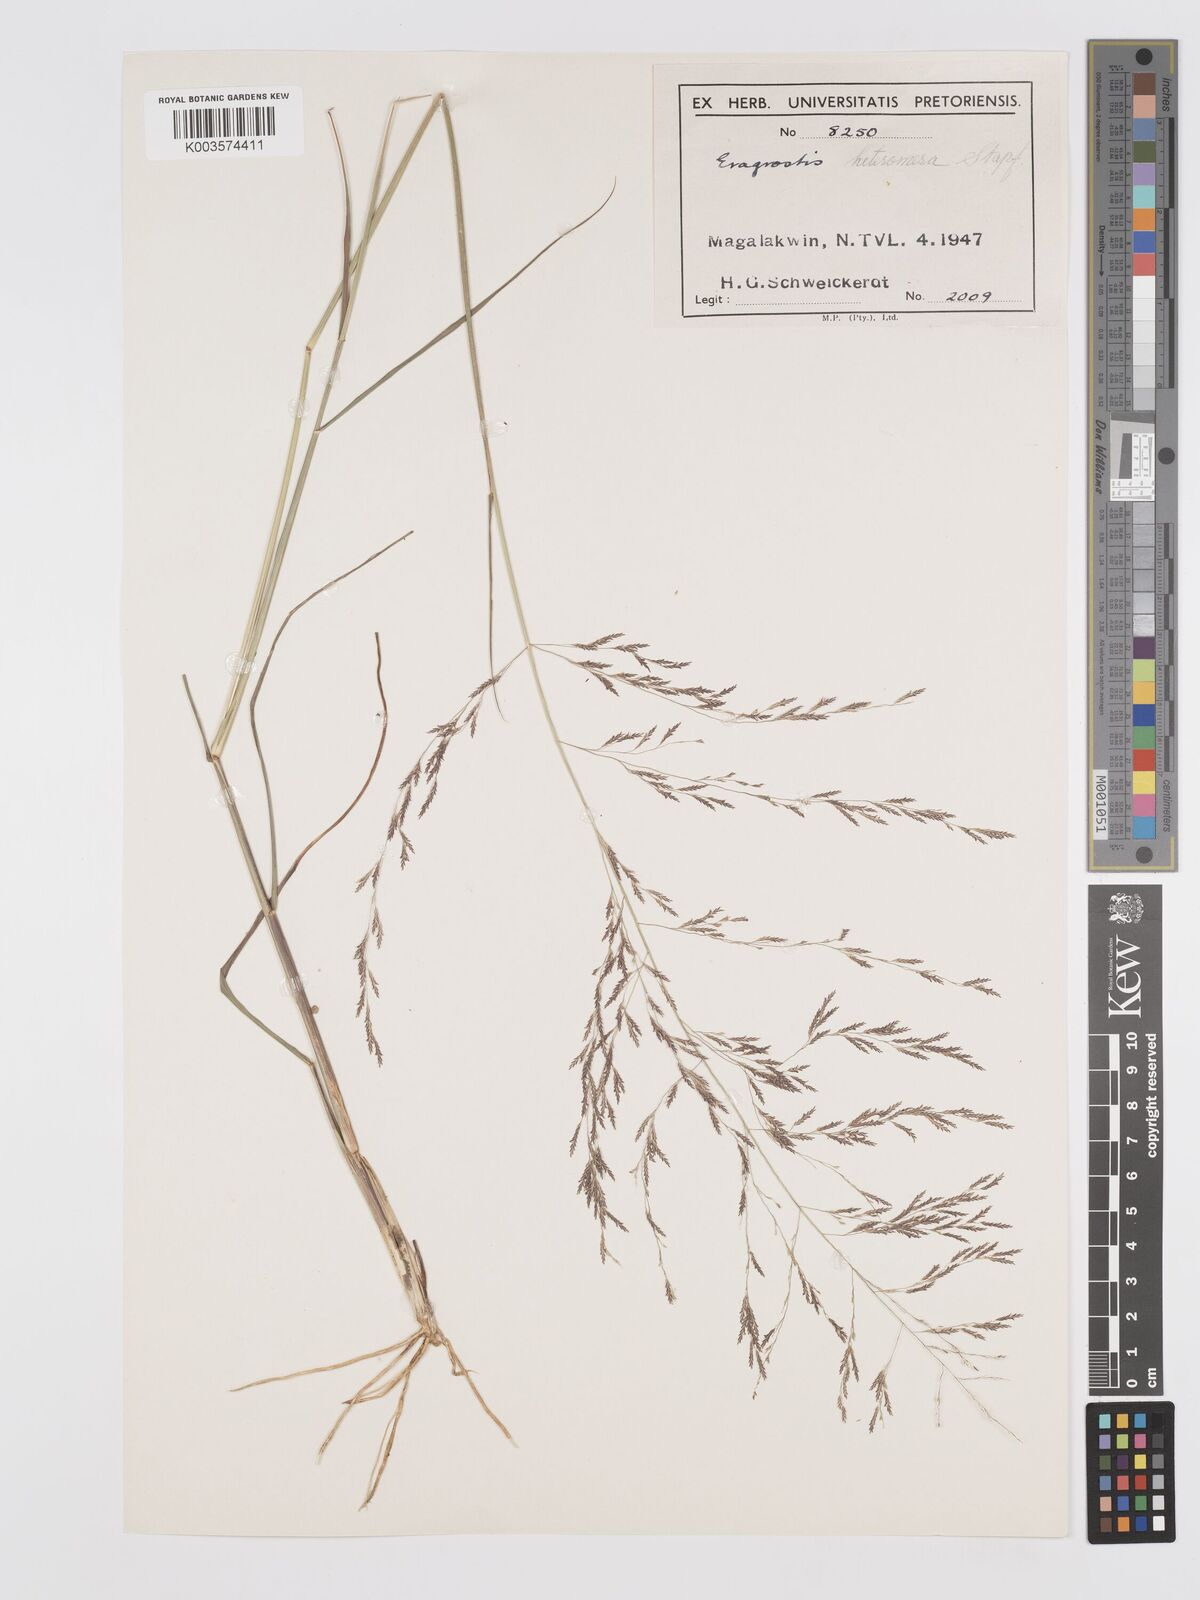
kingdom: Plantae
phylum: Tracheophyta
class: Liliopsida
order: Poales
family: Poaceae
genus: Eragrostis
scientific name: Eragrostis heteromera
